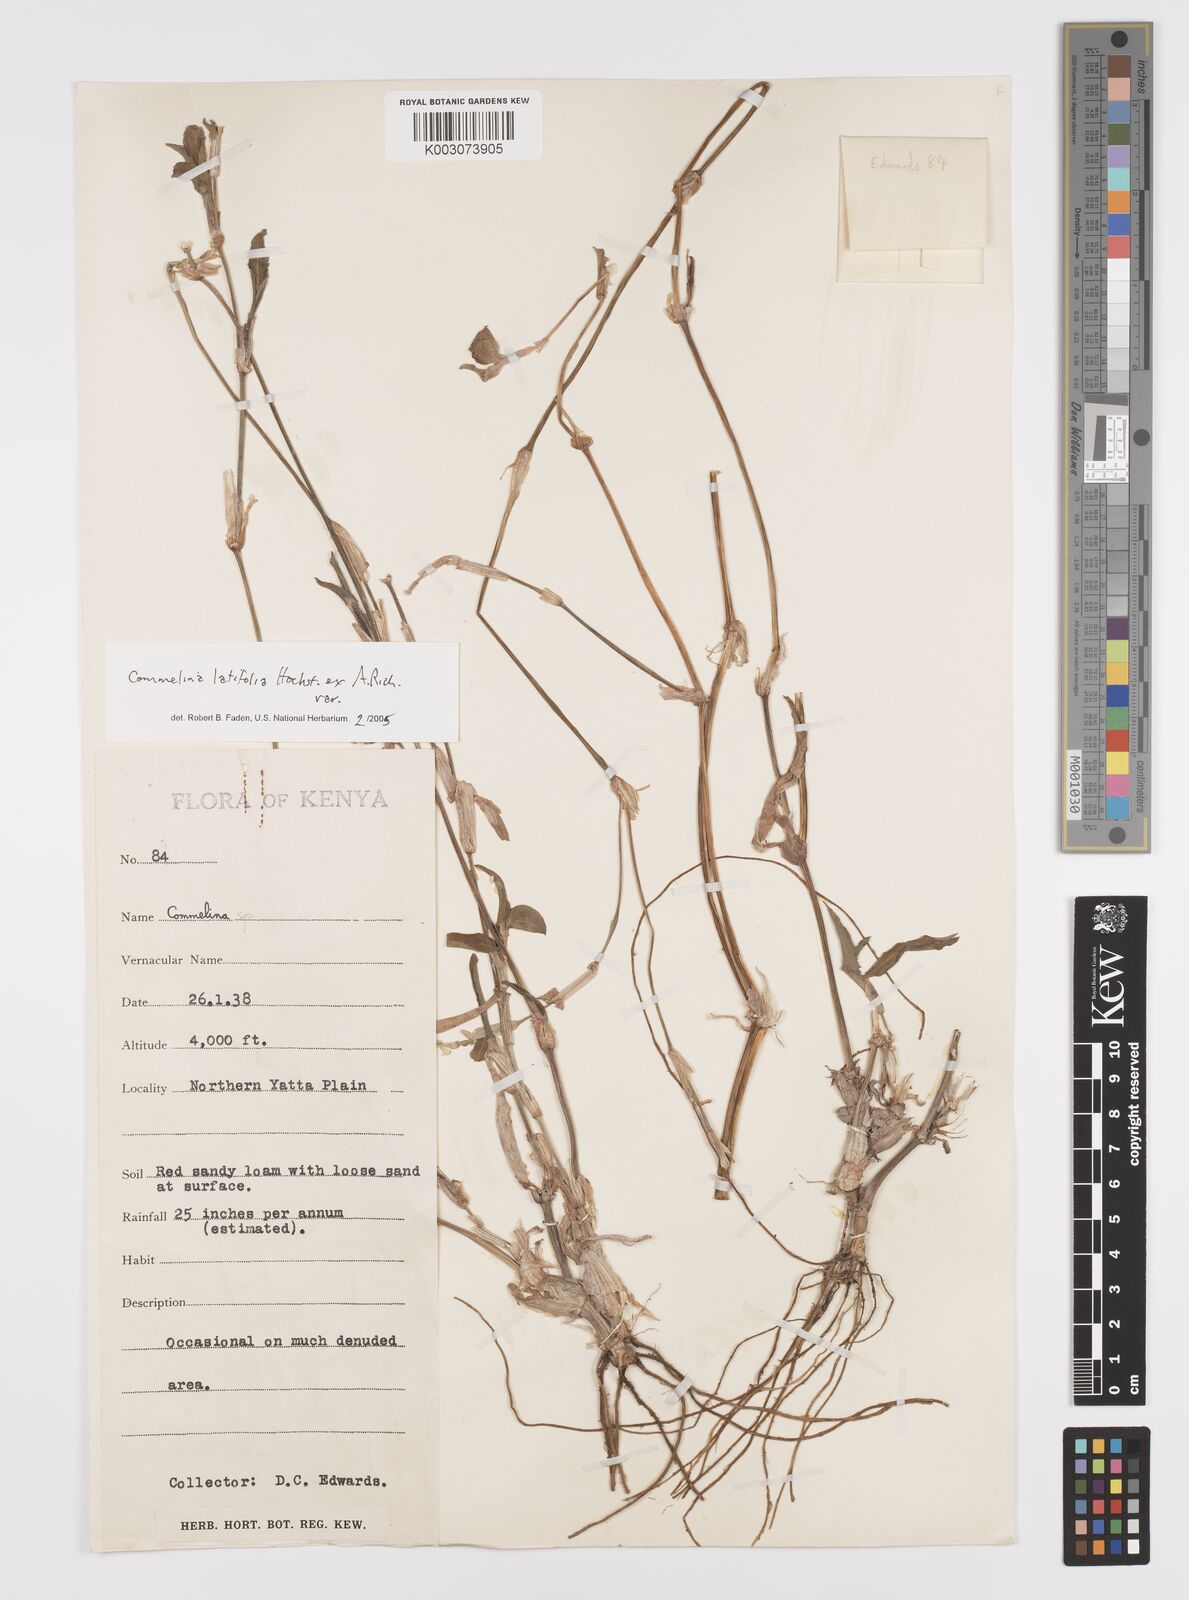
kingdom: Plantae
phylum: Tracheophyta
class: Liliopsida
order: Commelinales
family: Commelinaceae
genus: Commelina
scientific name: Commelina latifolia
